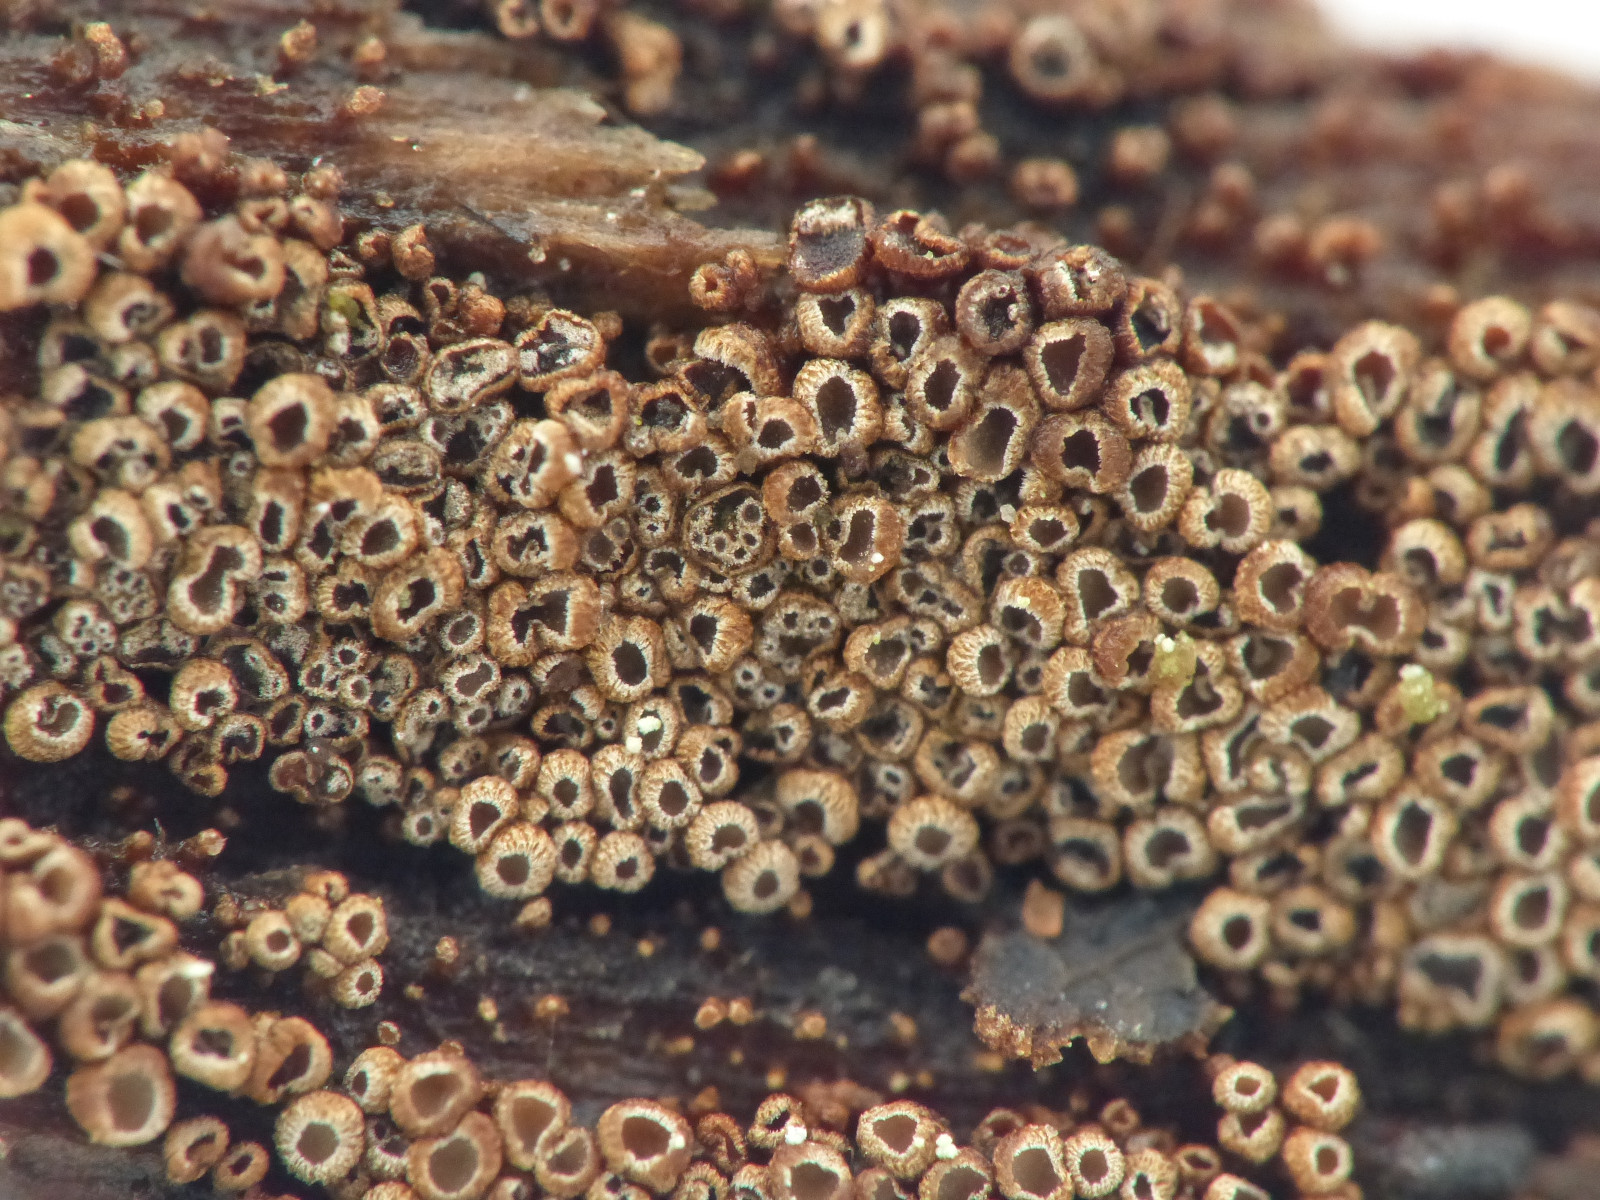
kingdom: Fungi
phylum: Basidiomycota
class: Agaricomycetes
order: Agaricales
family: Niaceae
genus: Merismodes
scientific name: Merismodes anomala
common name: almindelig læderskål
